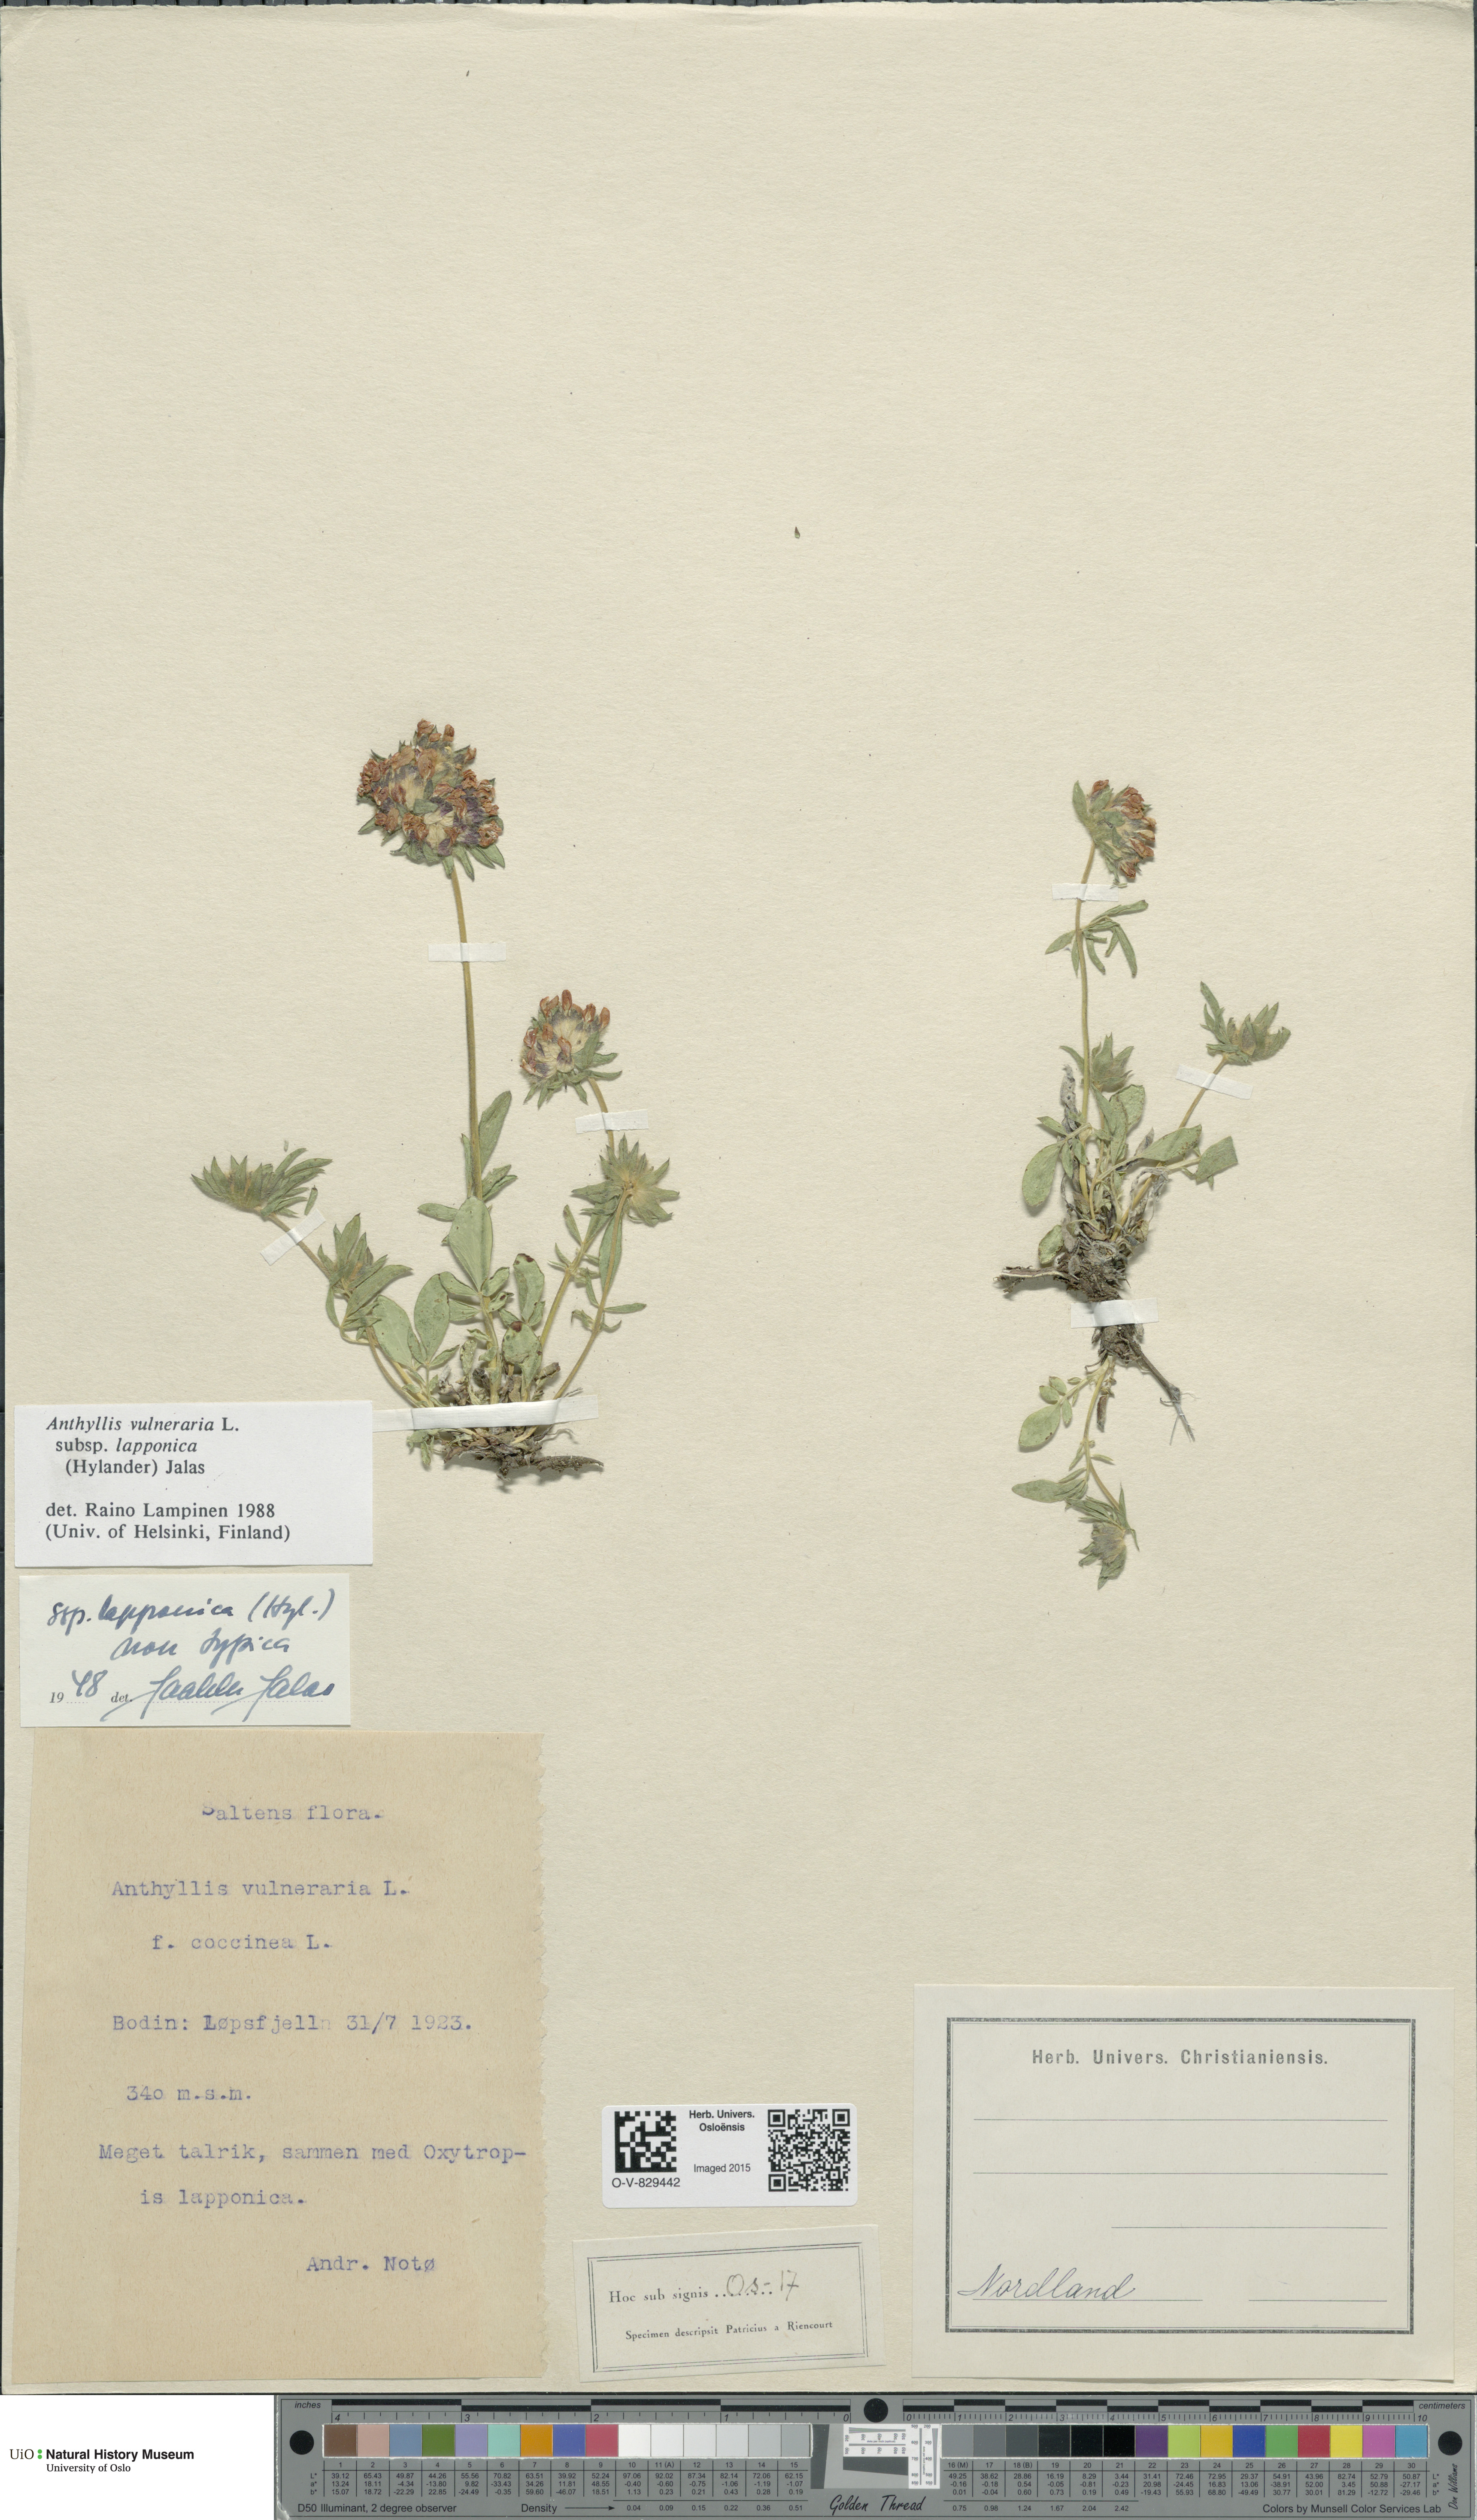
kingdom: Plantae
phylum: Tracheophyta
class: Magnoliopsida
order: Fabales
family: Fabaceae
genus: Anthyllis
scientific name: Anthyllis vulneraria
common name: Kidney vetch
